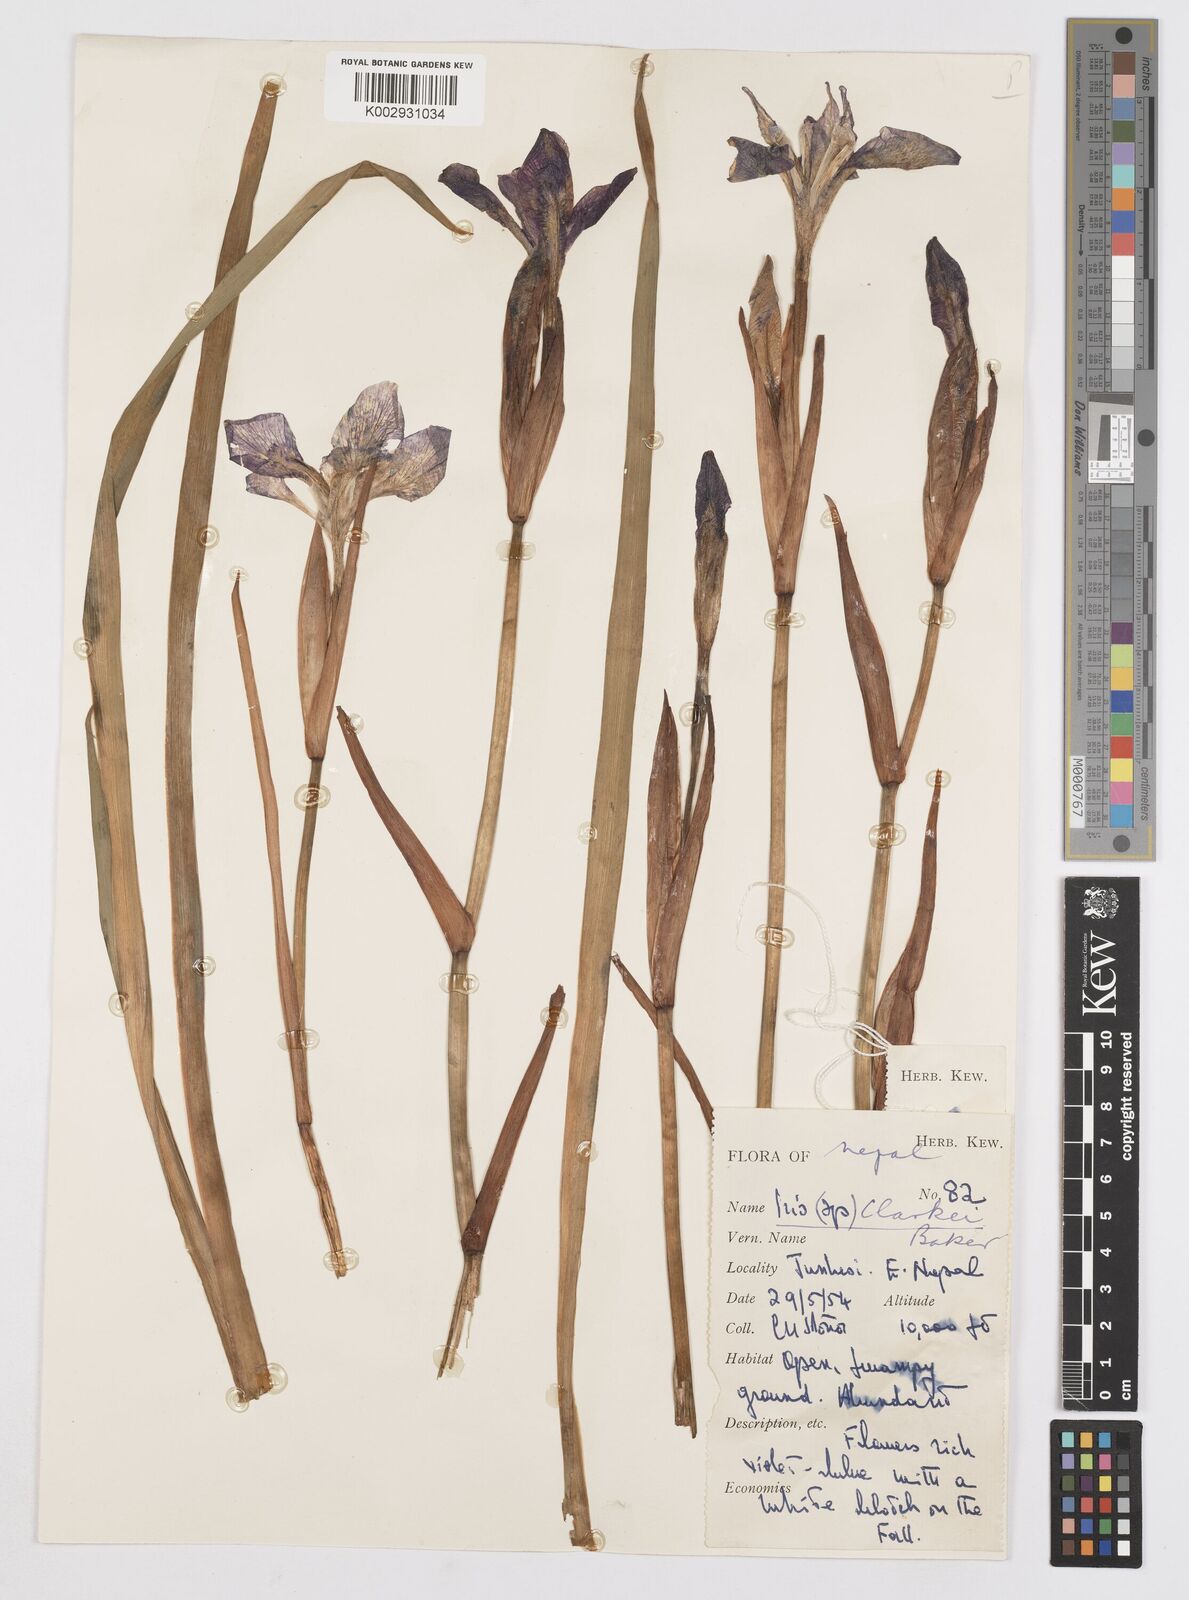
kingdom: Plantae
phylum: Tracheophyta
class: Liliopsida
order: Asparagales
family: Iridaceae
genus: Iris
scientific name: Iris clarkei
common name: Tibet iris
